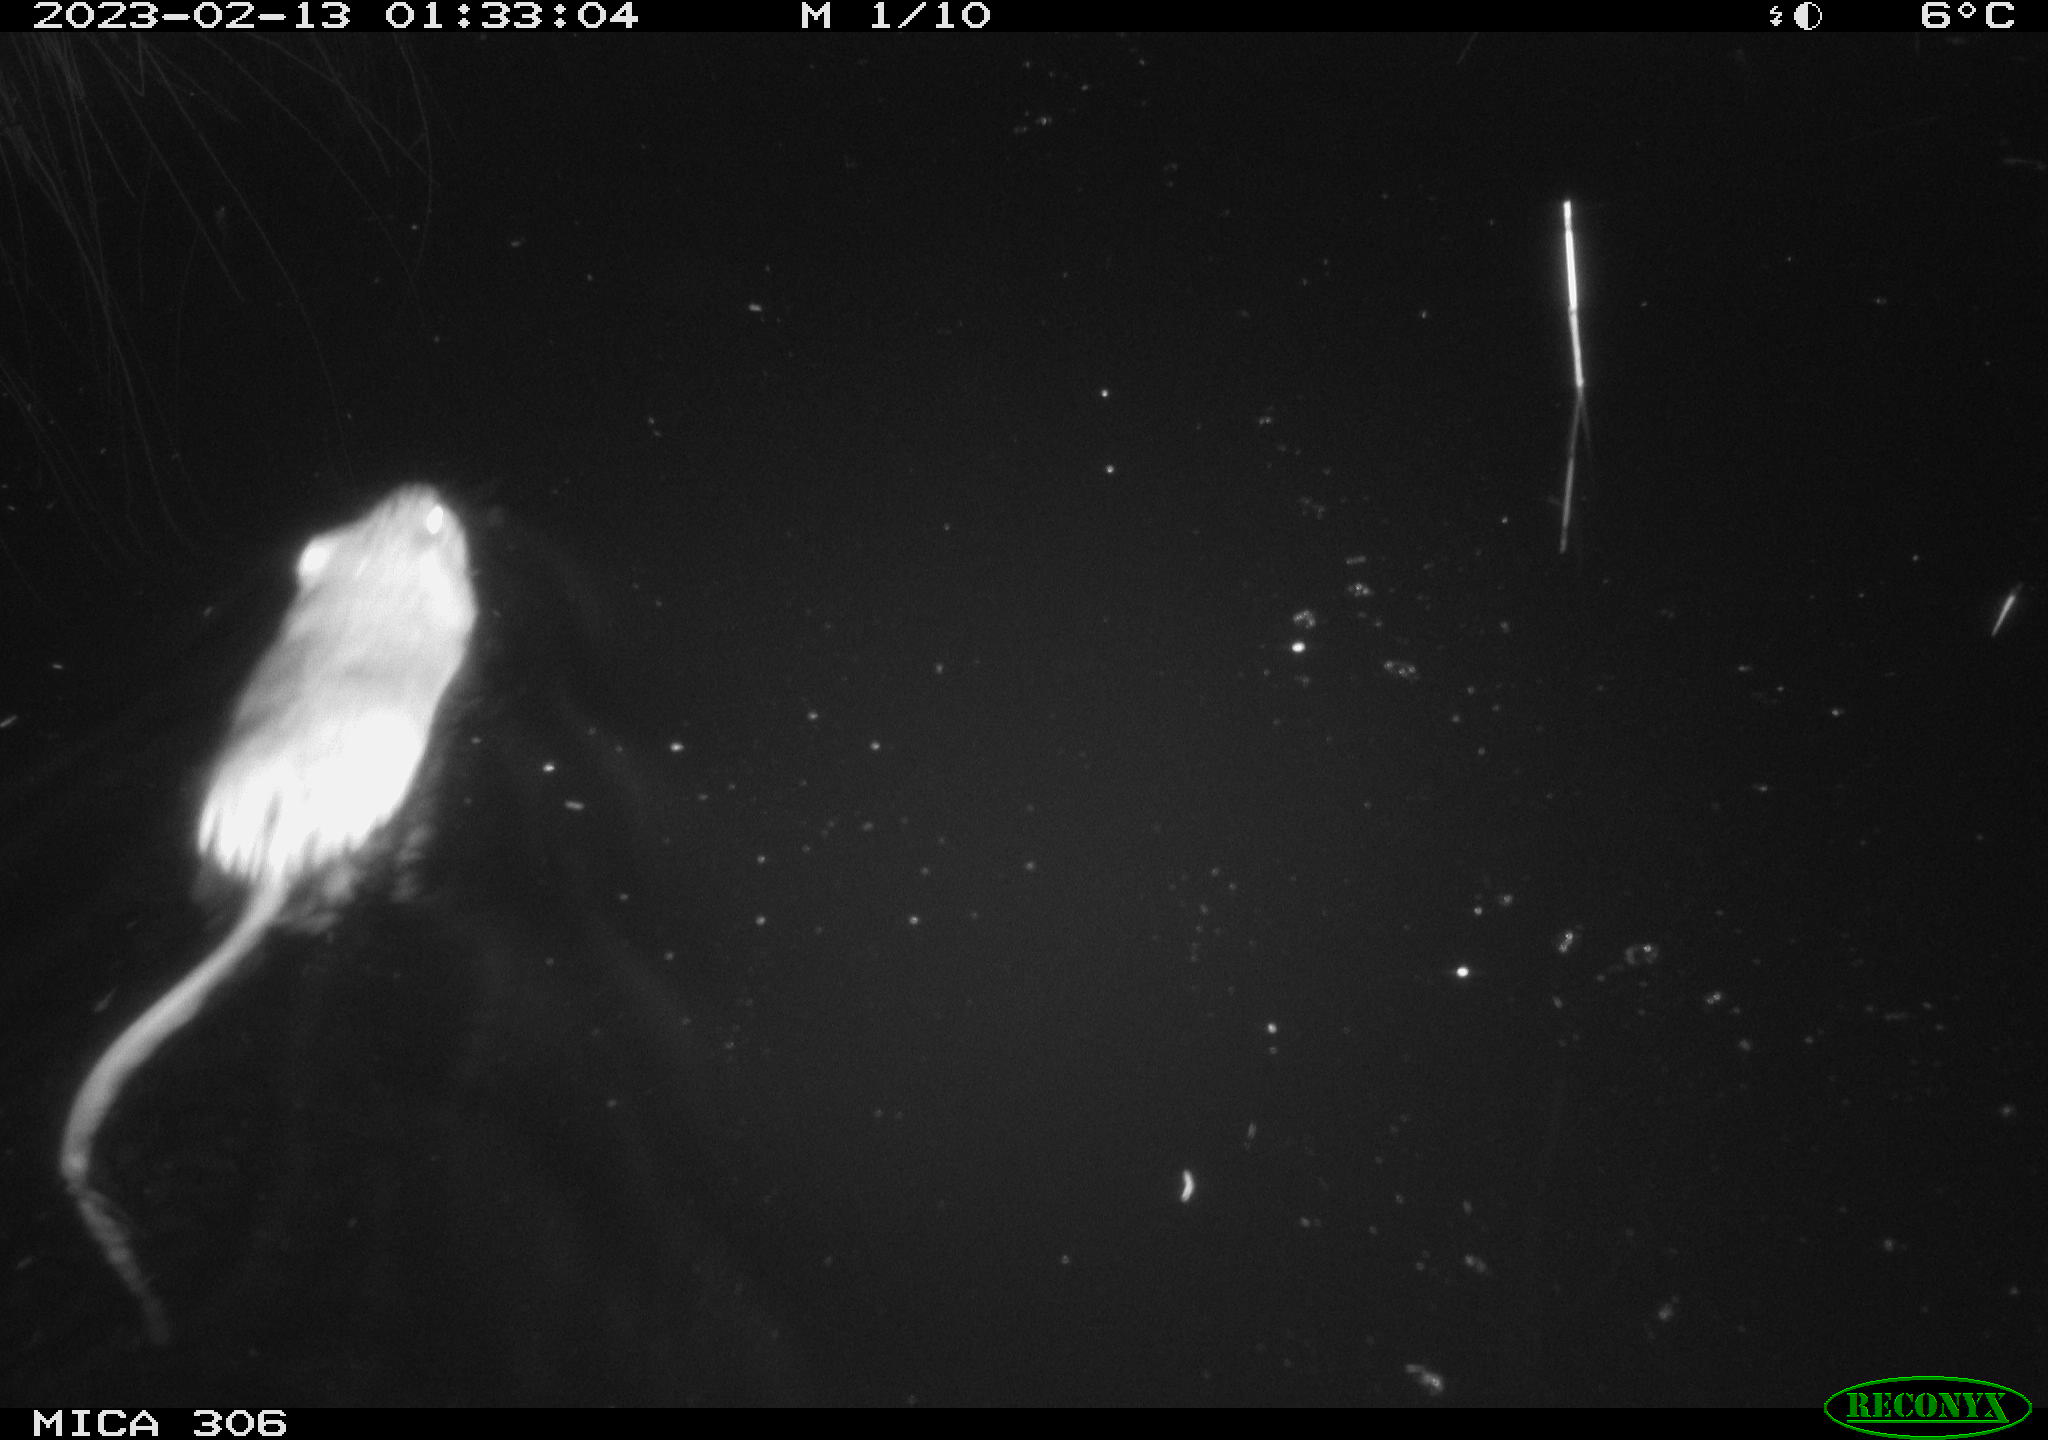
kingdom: Animalia
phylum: Chordata
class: Mammalia
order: Rodentia
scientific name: Rodentia
